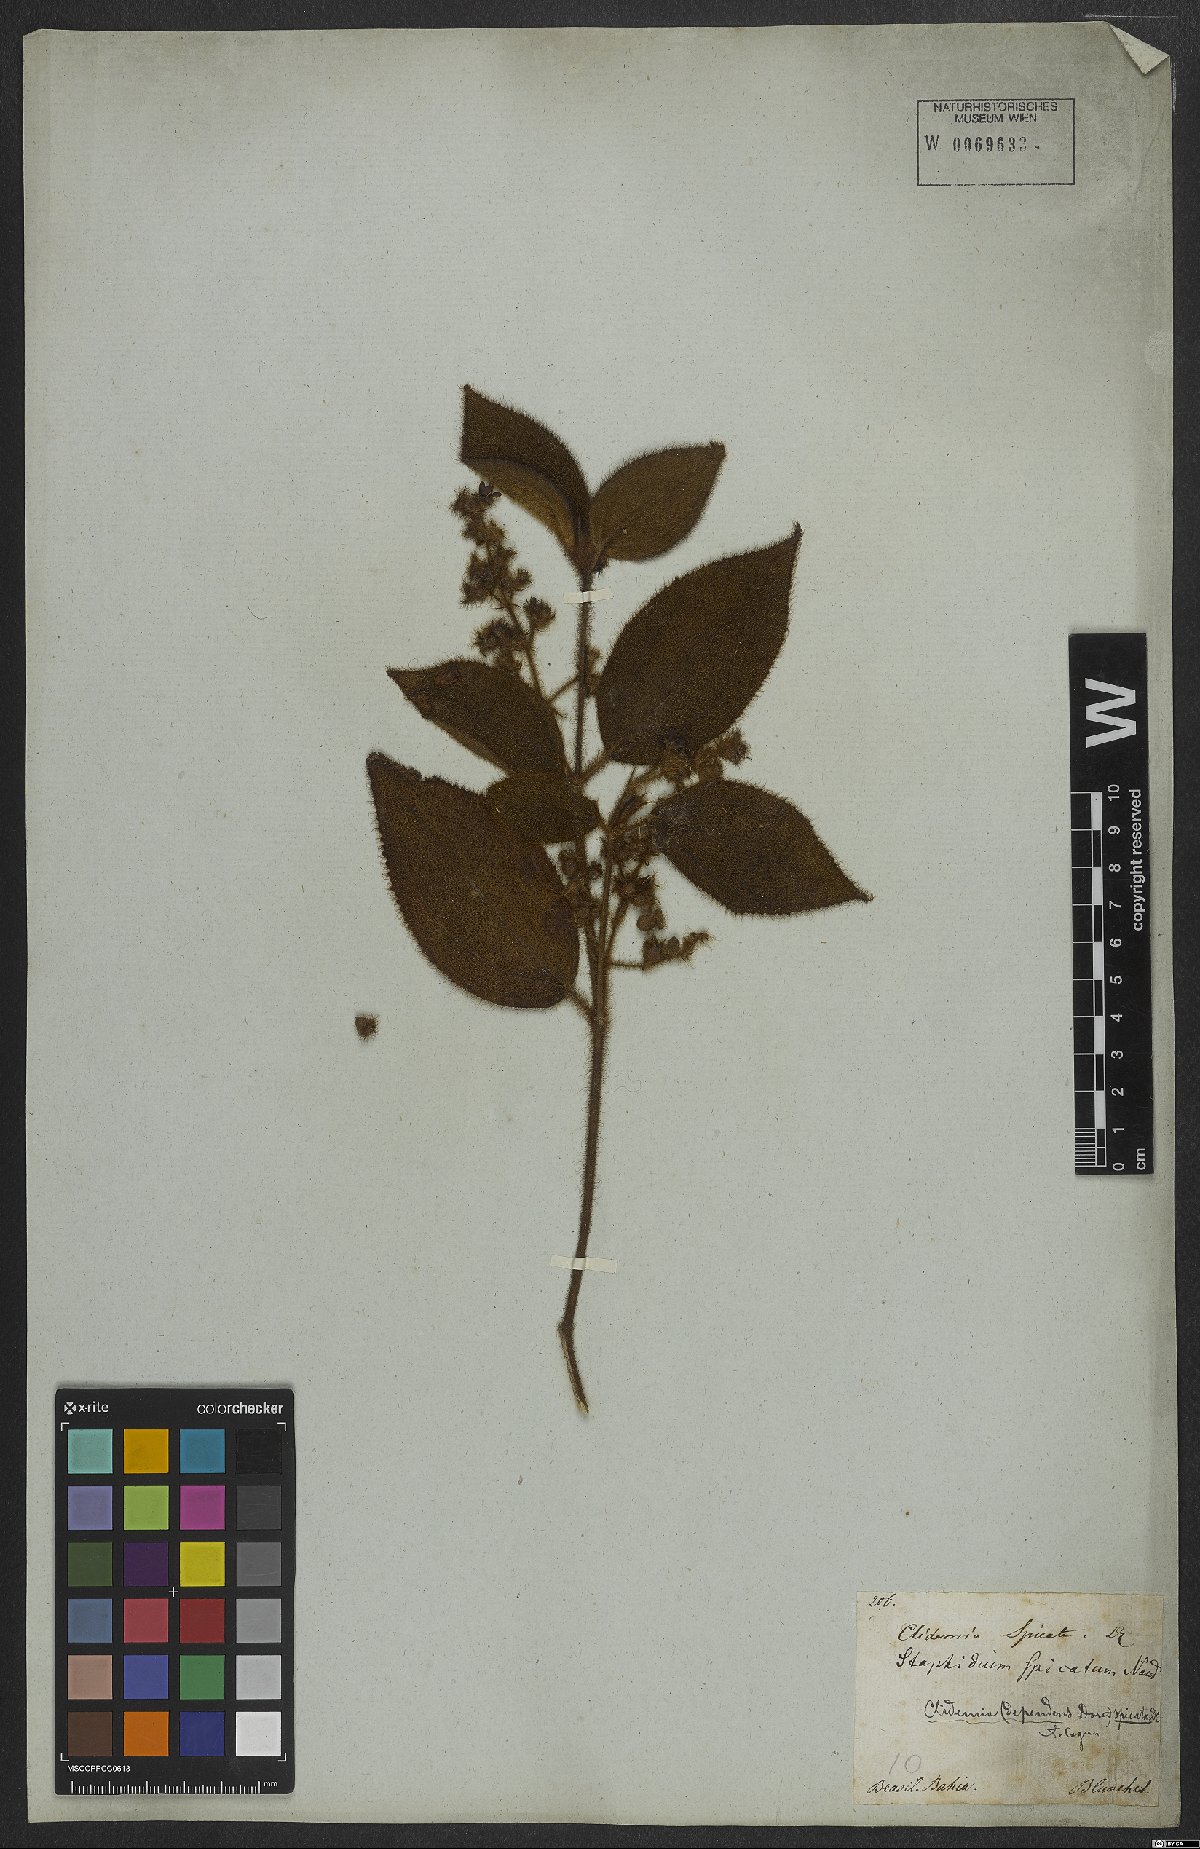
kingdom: Plantae
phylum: Tracheophyta
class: Magnoliopsida
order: Myrtales
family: Melastomataceae
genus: Miconia
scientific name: Miconia dependens
